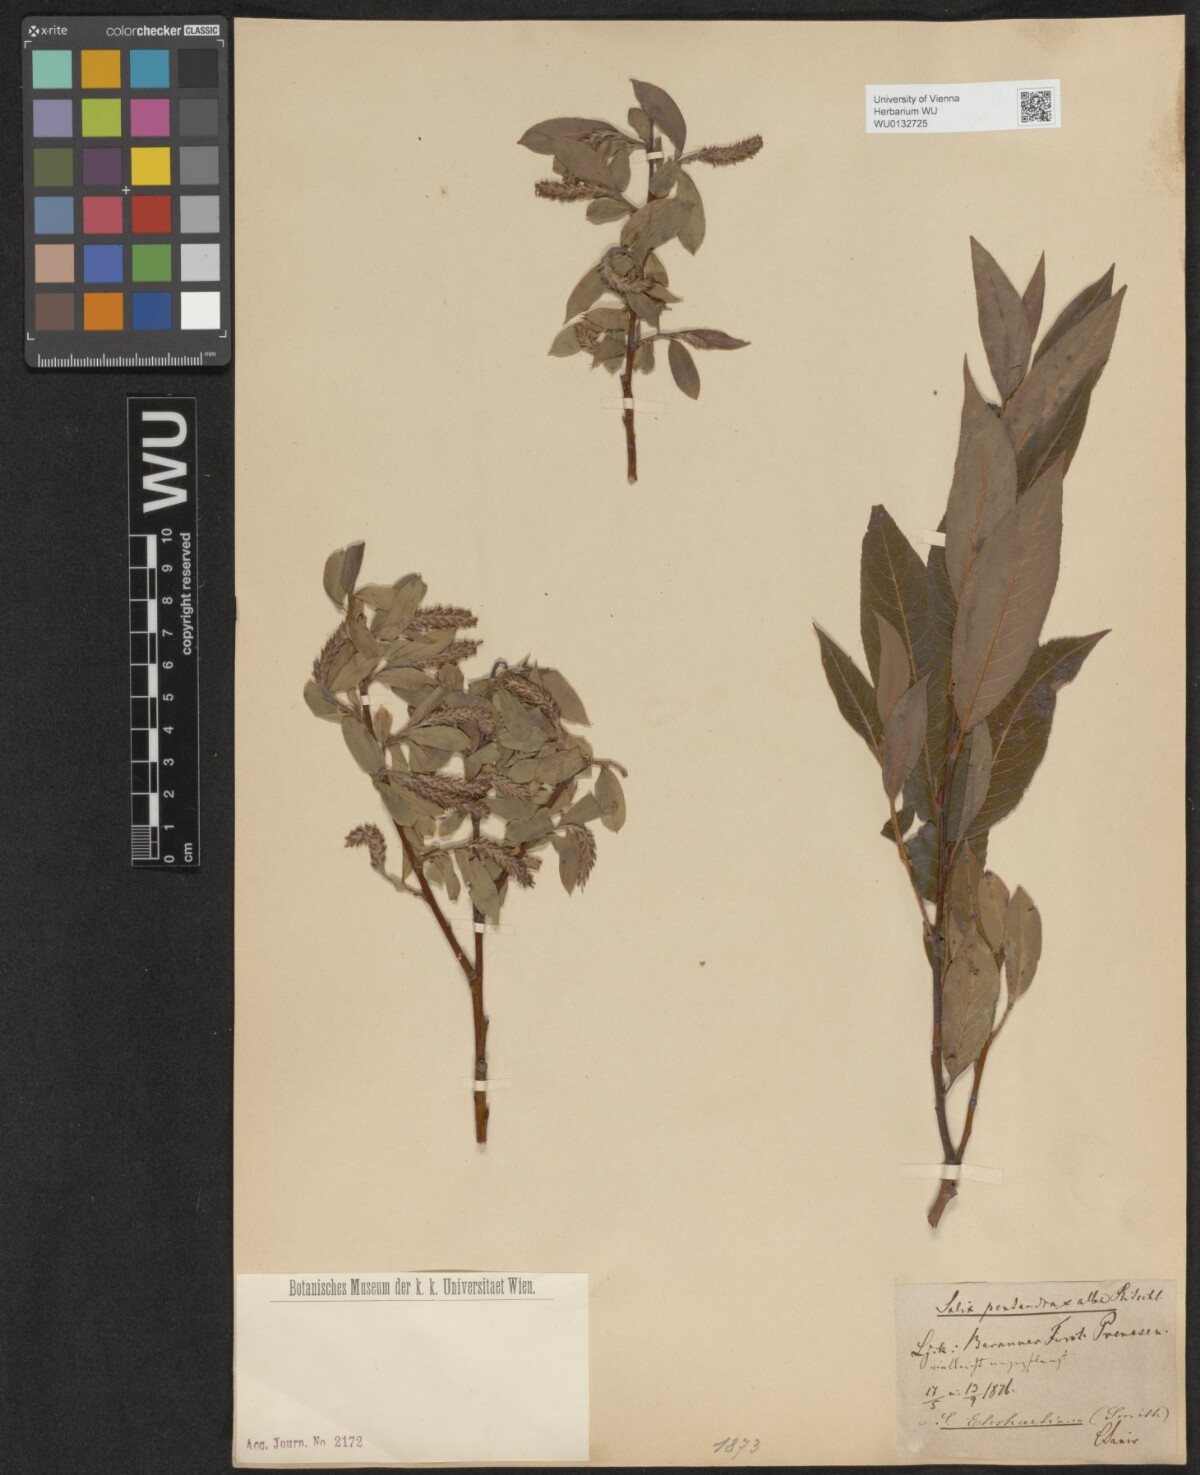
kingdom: Plantae
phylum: Tracheophyta
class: Magnoliopsida
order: Malpighiales
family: Salicaceae
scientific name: Salicaceae
